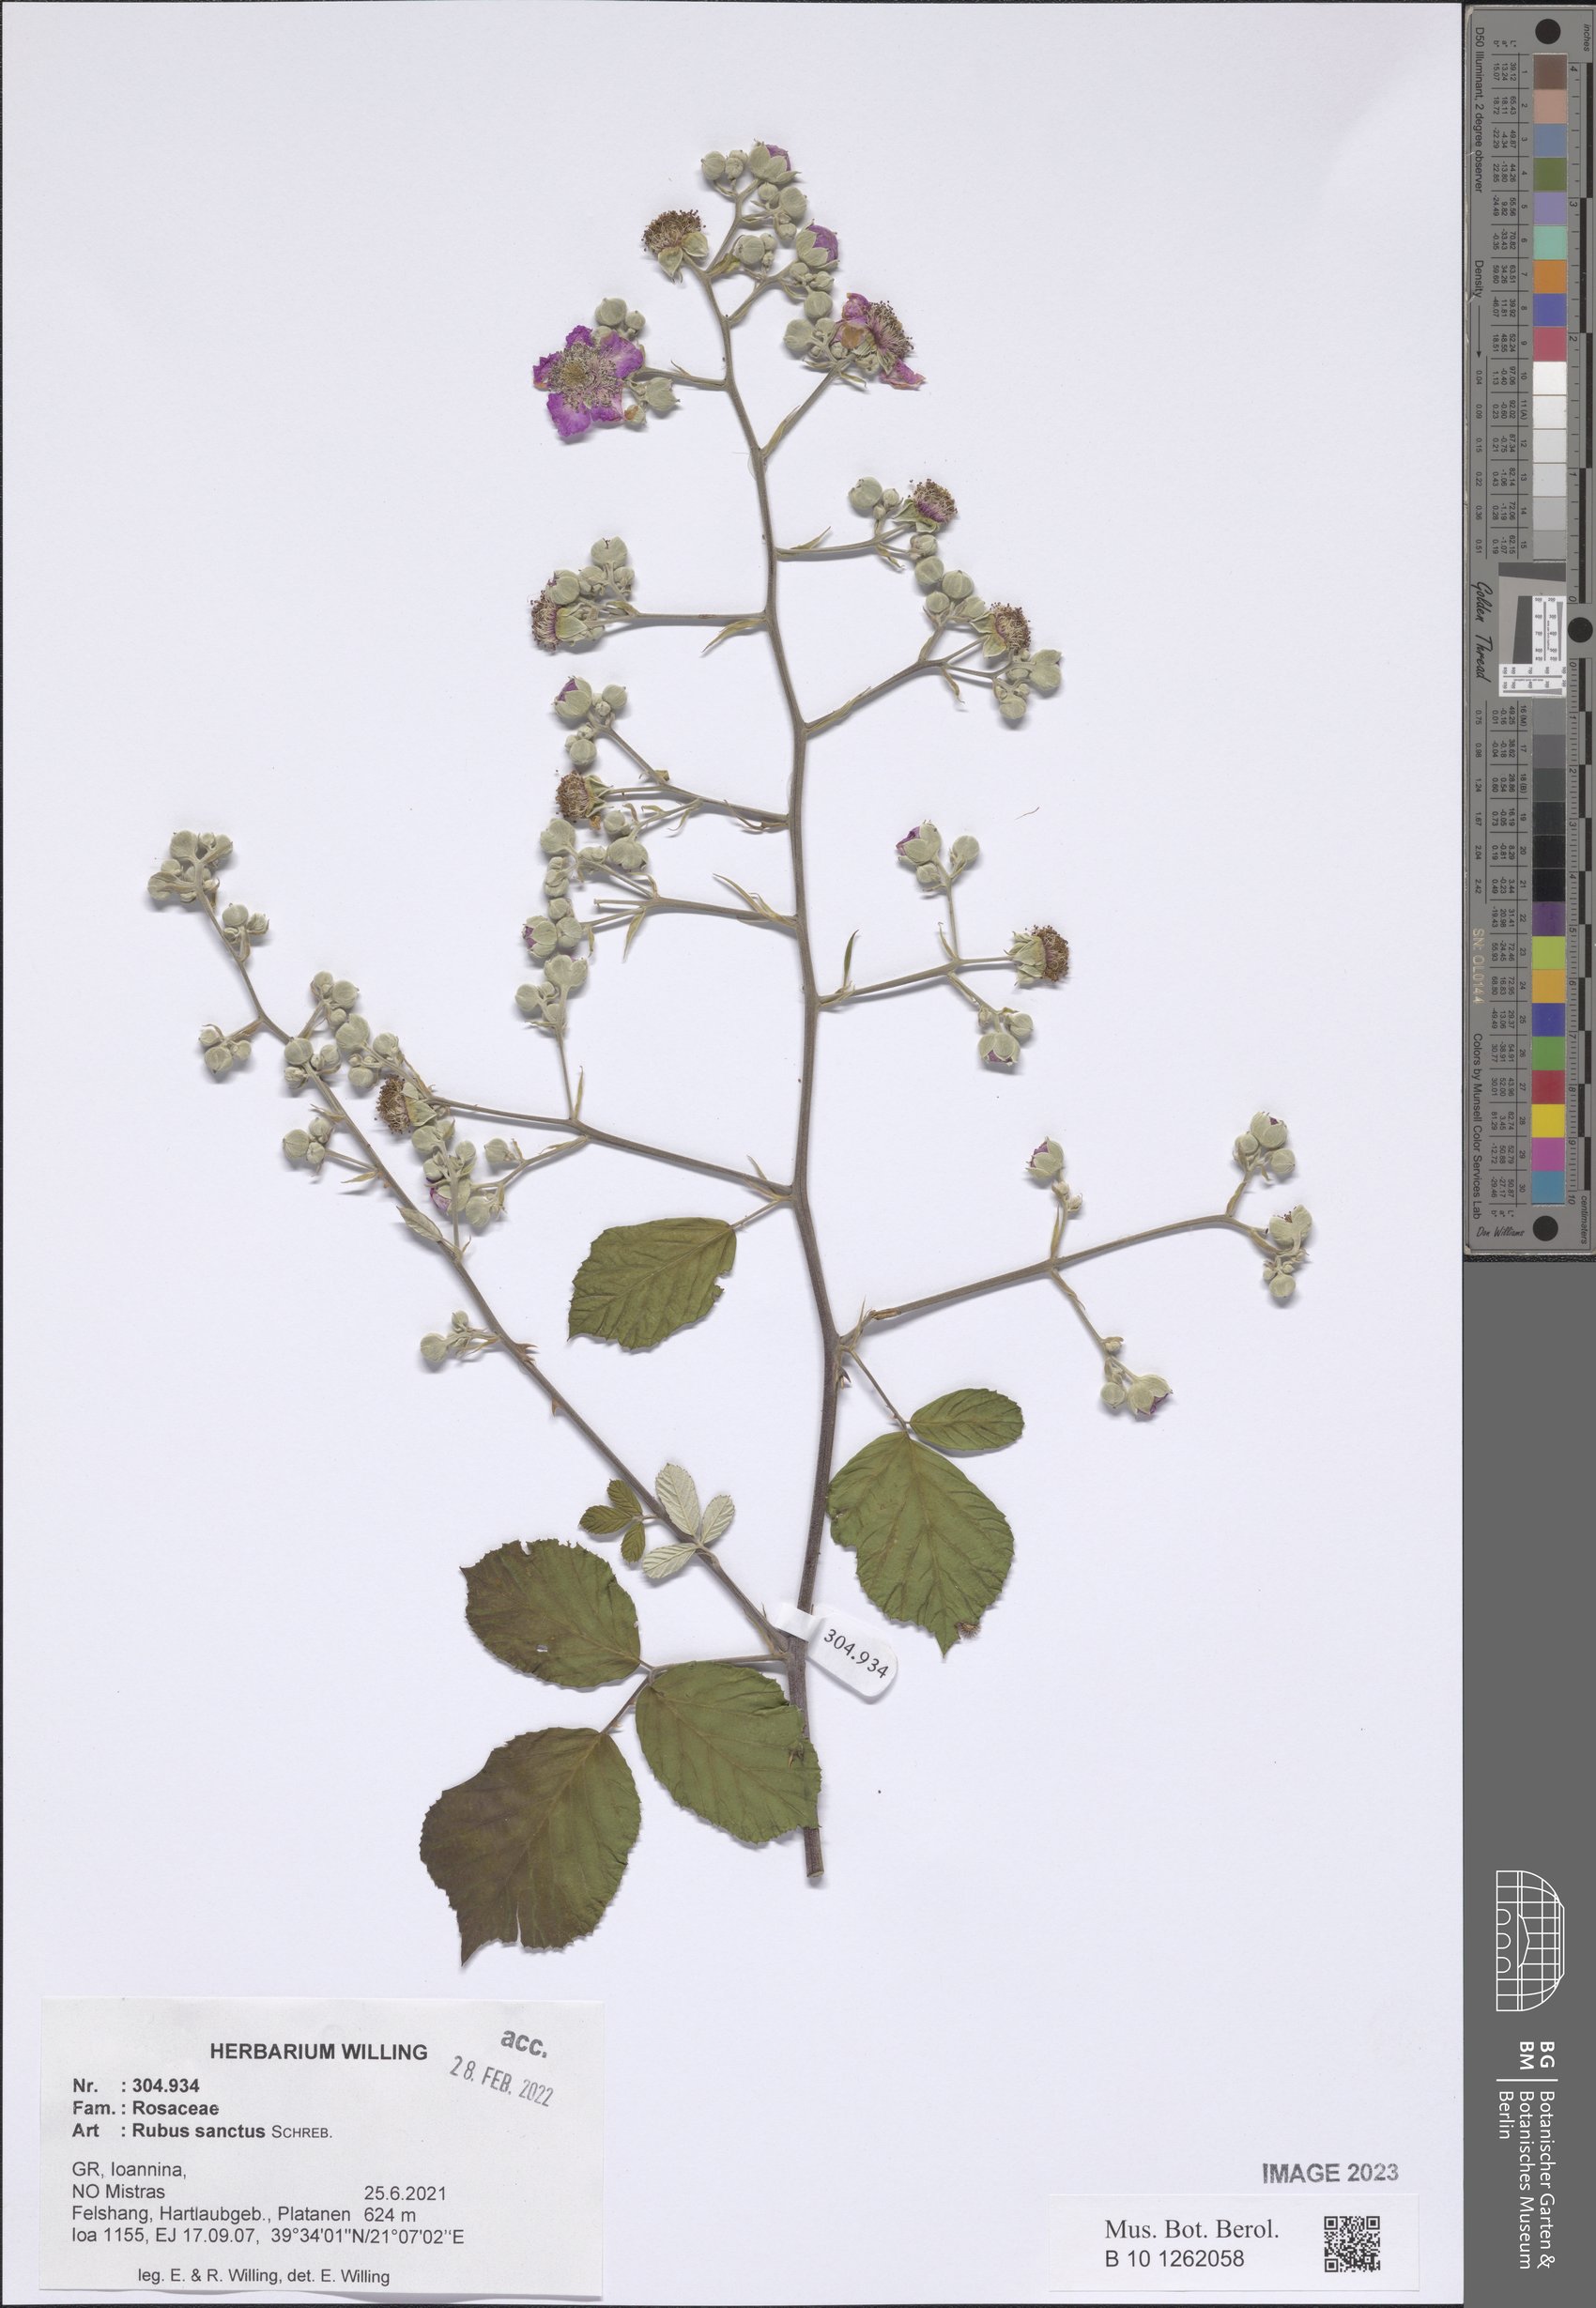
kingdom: Plantae
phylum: Tracheophyta
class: Magnoliopsida
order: Rosales
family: Rosaceae
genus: Rubus
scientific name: Rubus sanctus
